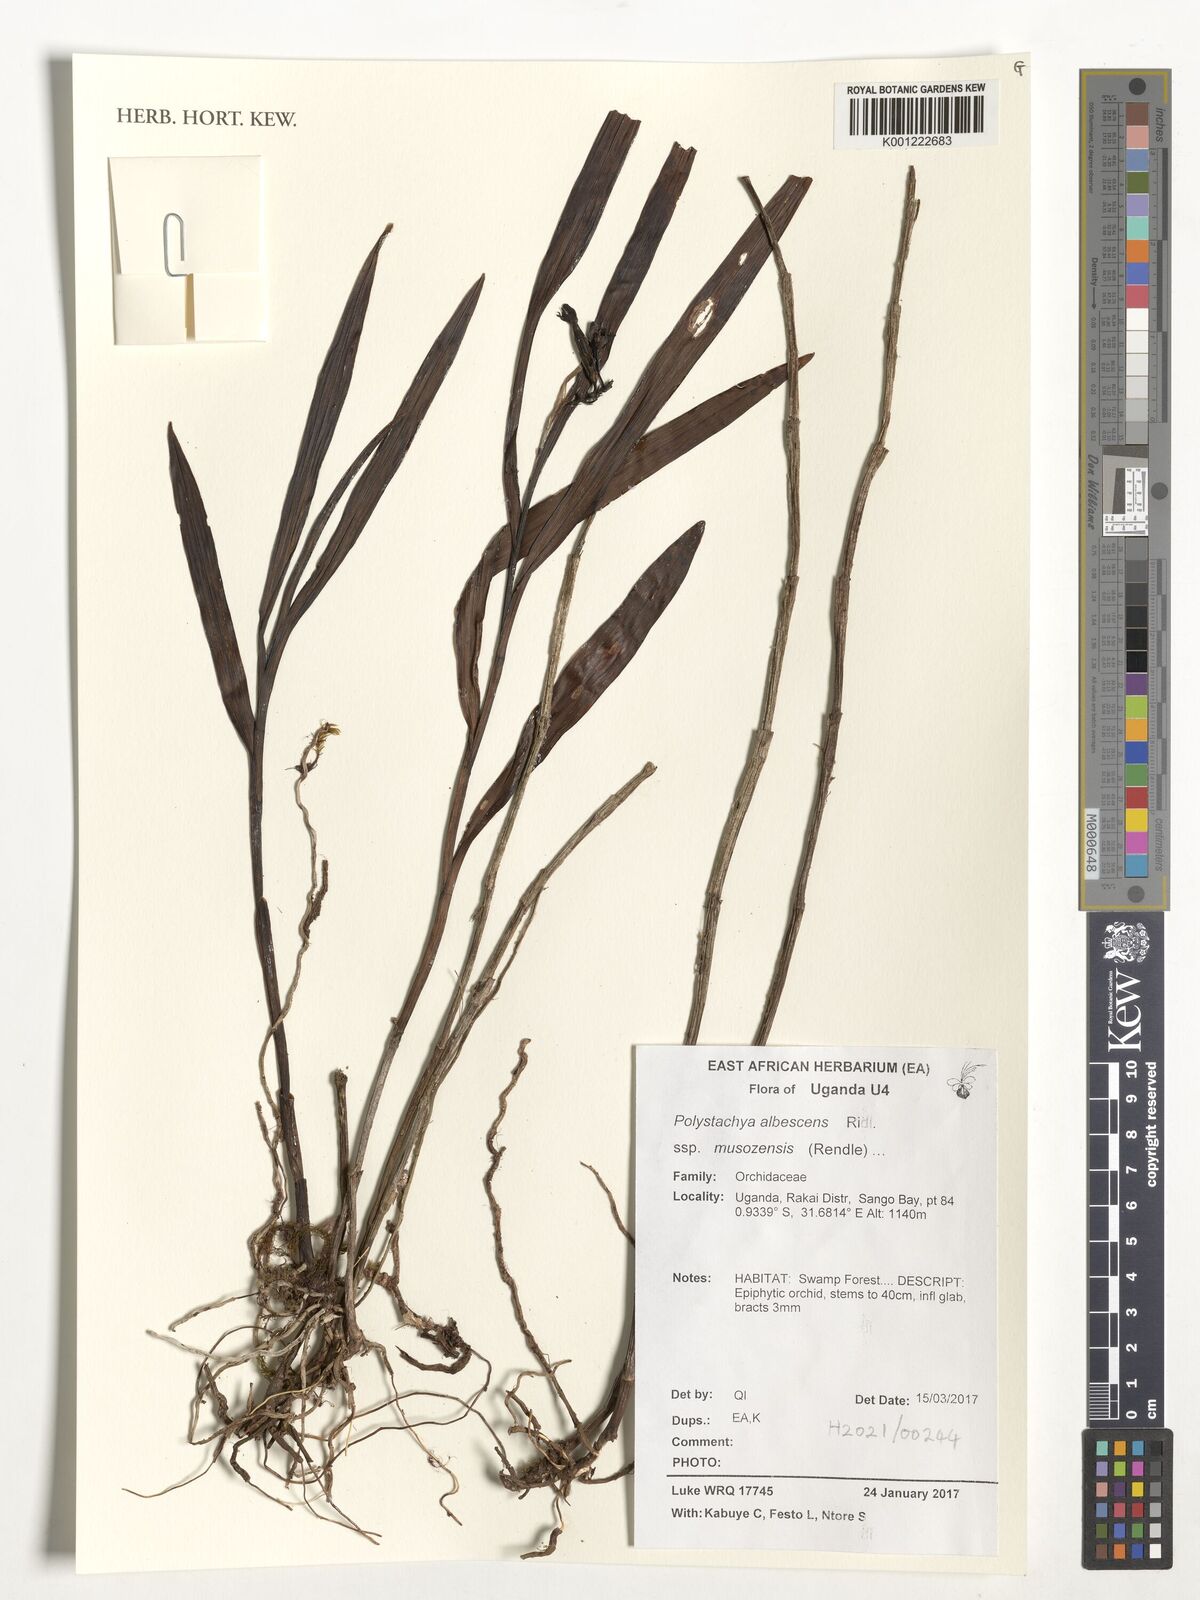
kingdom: Plantae
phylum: Tracheophyta
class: Liliopsida
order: Asparagales
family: Orchidaceae
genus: Polystachya
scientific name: Polystachya albescens
